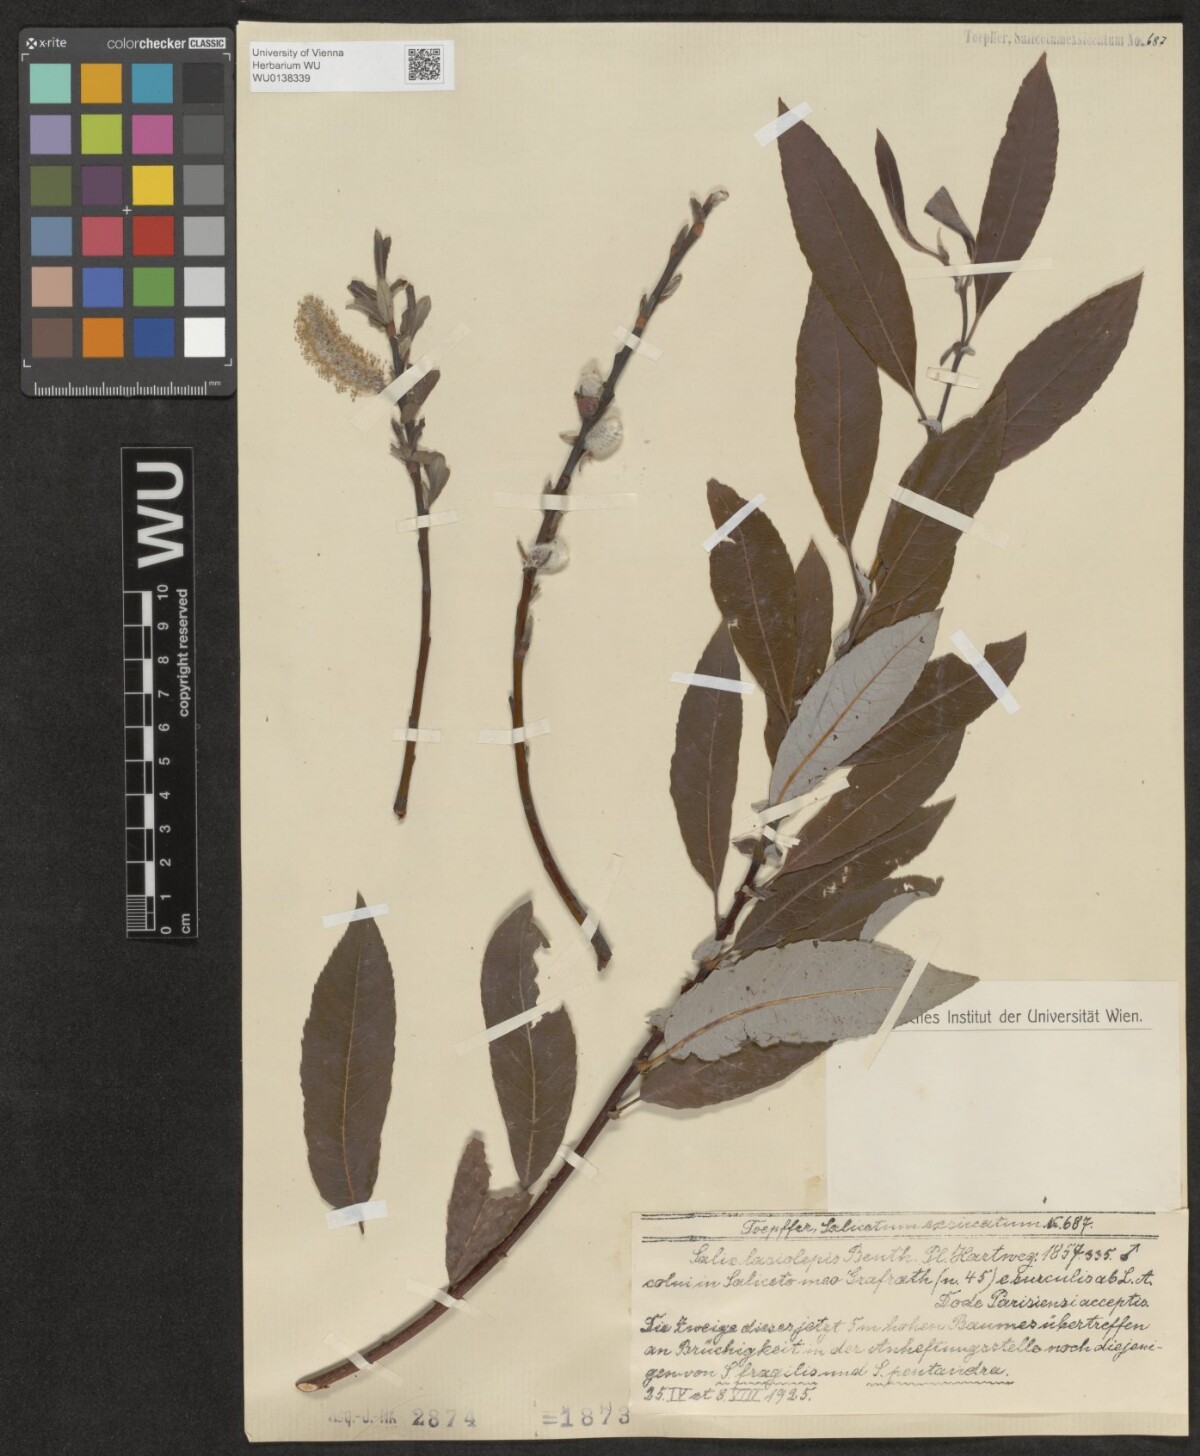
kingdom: Plantae
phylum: Tracheophyta
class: Magnoliopsida
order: Malpighiales
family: Salicaceae
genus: Salix
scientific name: Salix lasiolepis
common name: Arroyo willow
